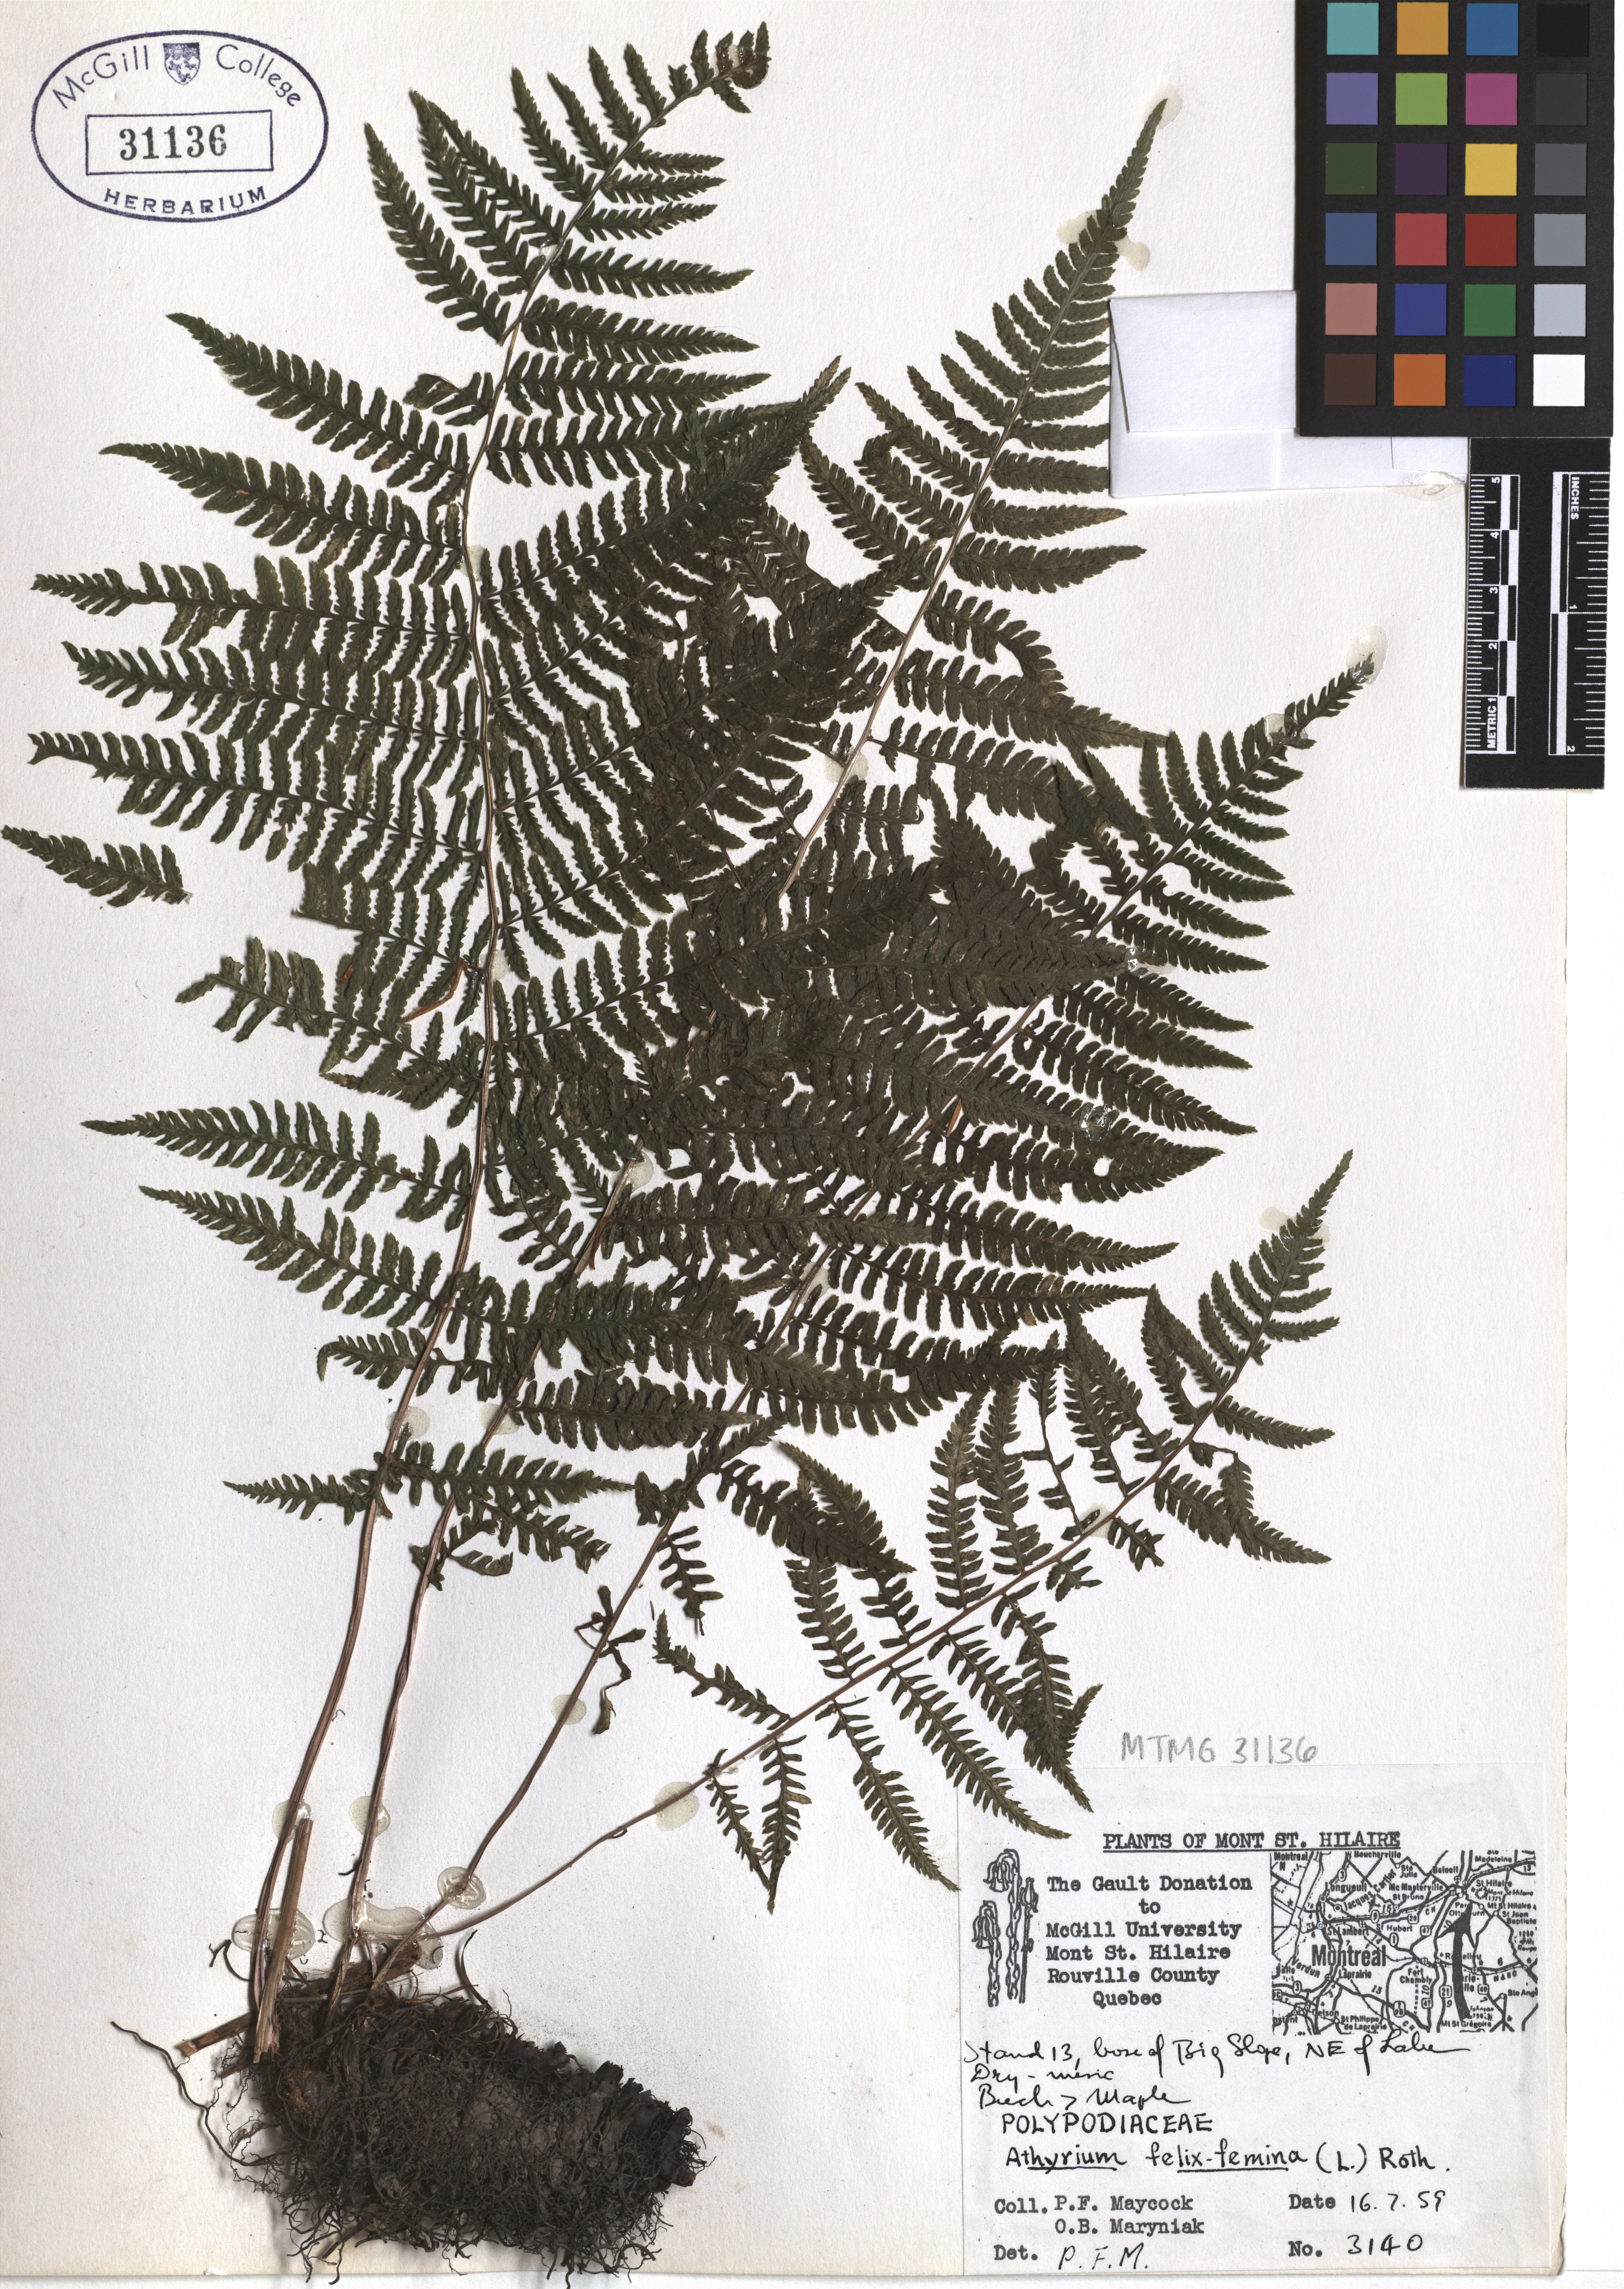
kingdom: Plantae
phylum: Tracheophyta
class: Polypodiopsida
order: Polypodiales
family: Athyriaceae
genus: Athyrium
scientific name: Athyrium filix-femina
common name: Lady fern
